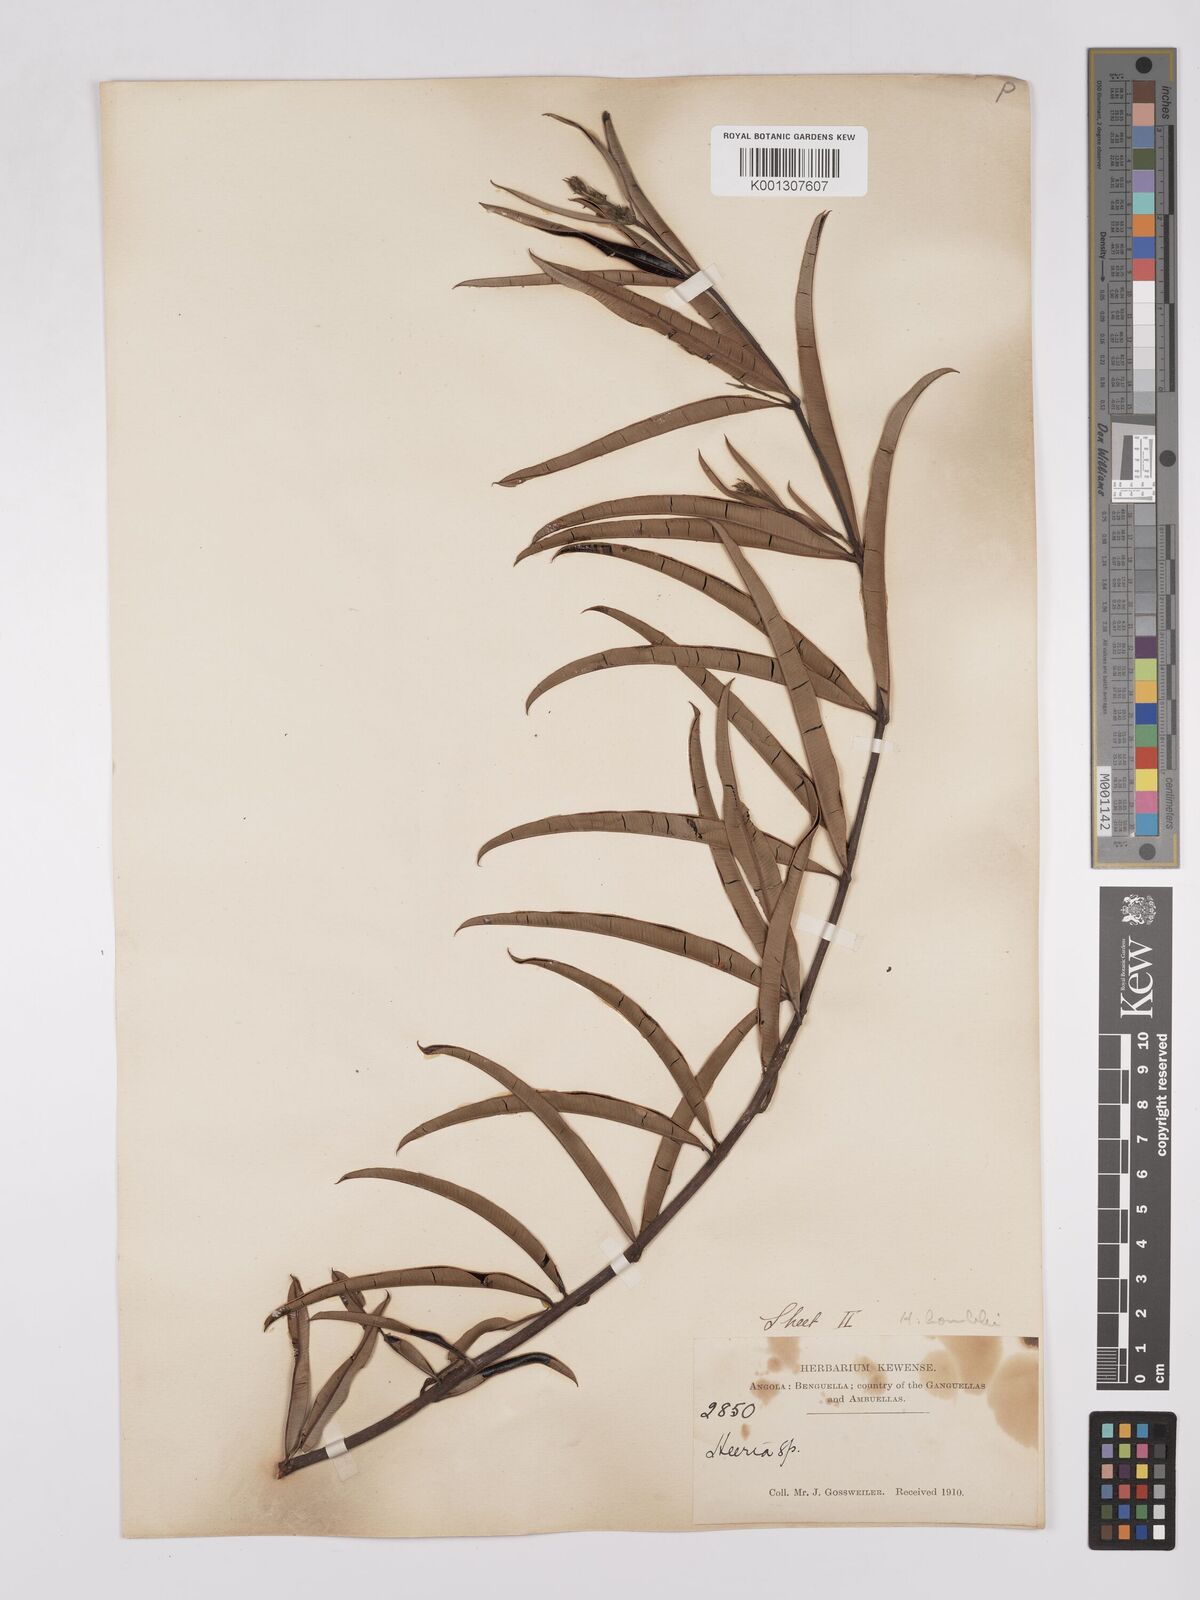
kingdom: Plantae
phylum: Tracheophyta
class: Magnoliopsida
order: Sapindales
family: Anacardiaceae
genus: Ozoroa
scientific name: Ozoroa homblei
